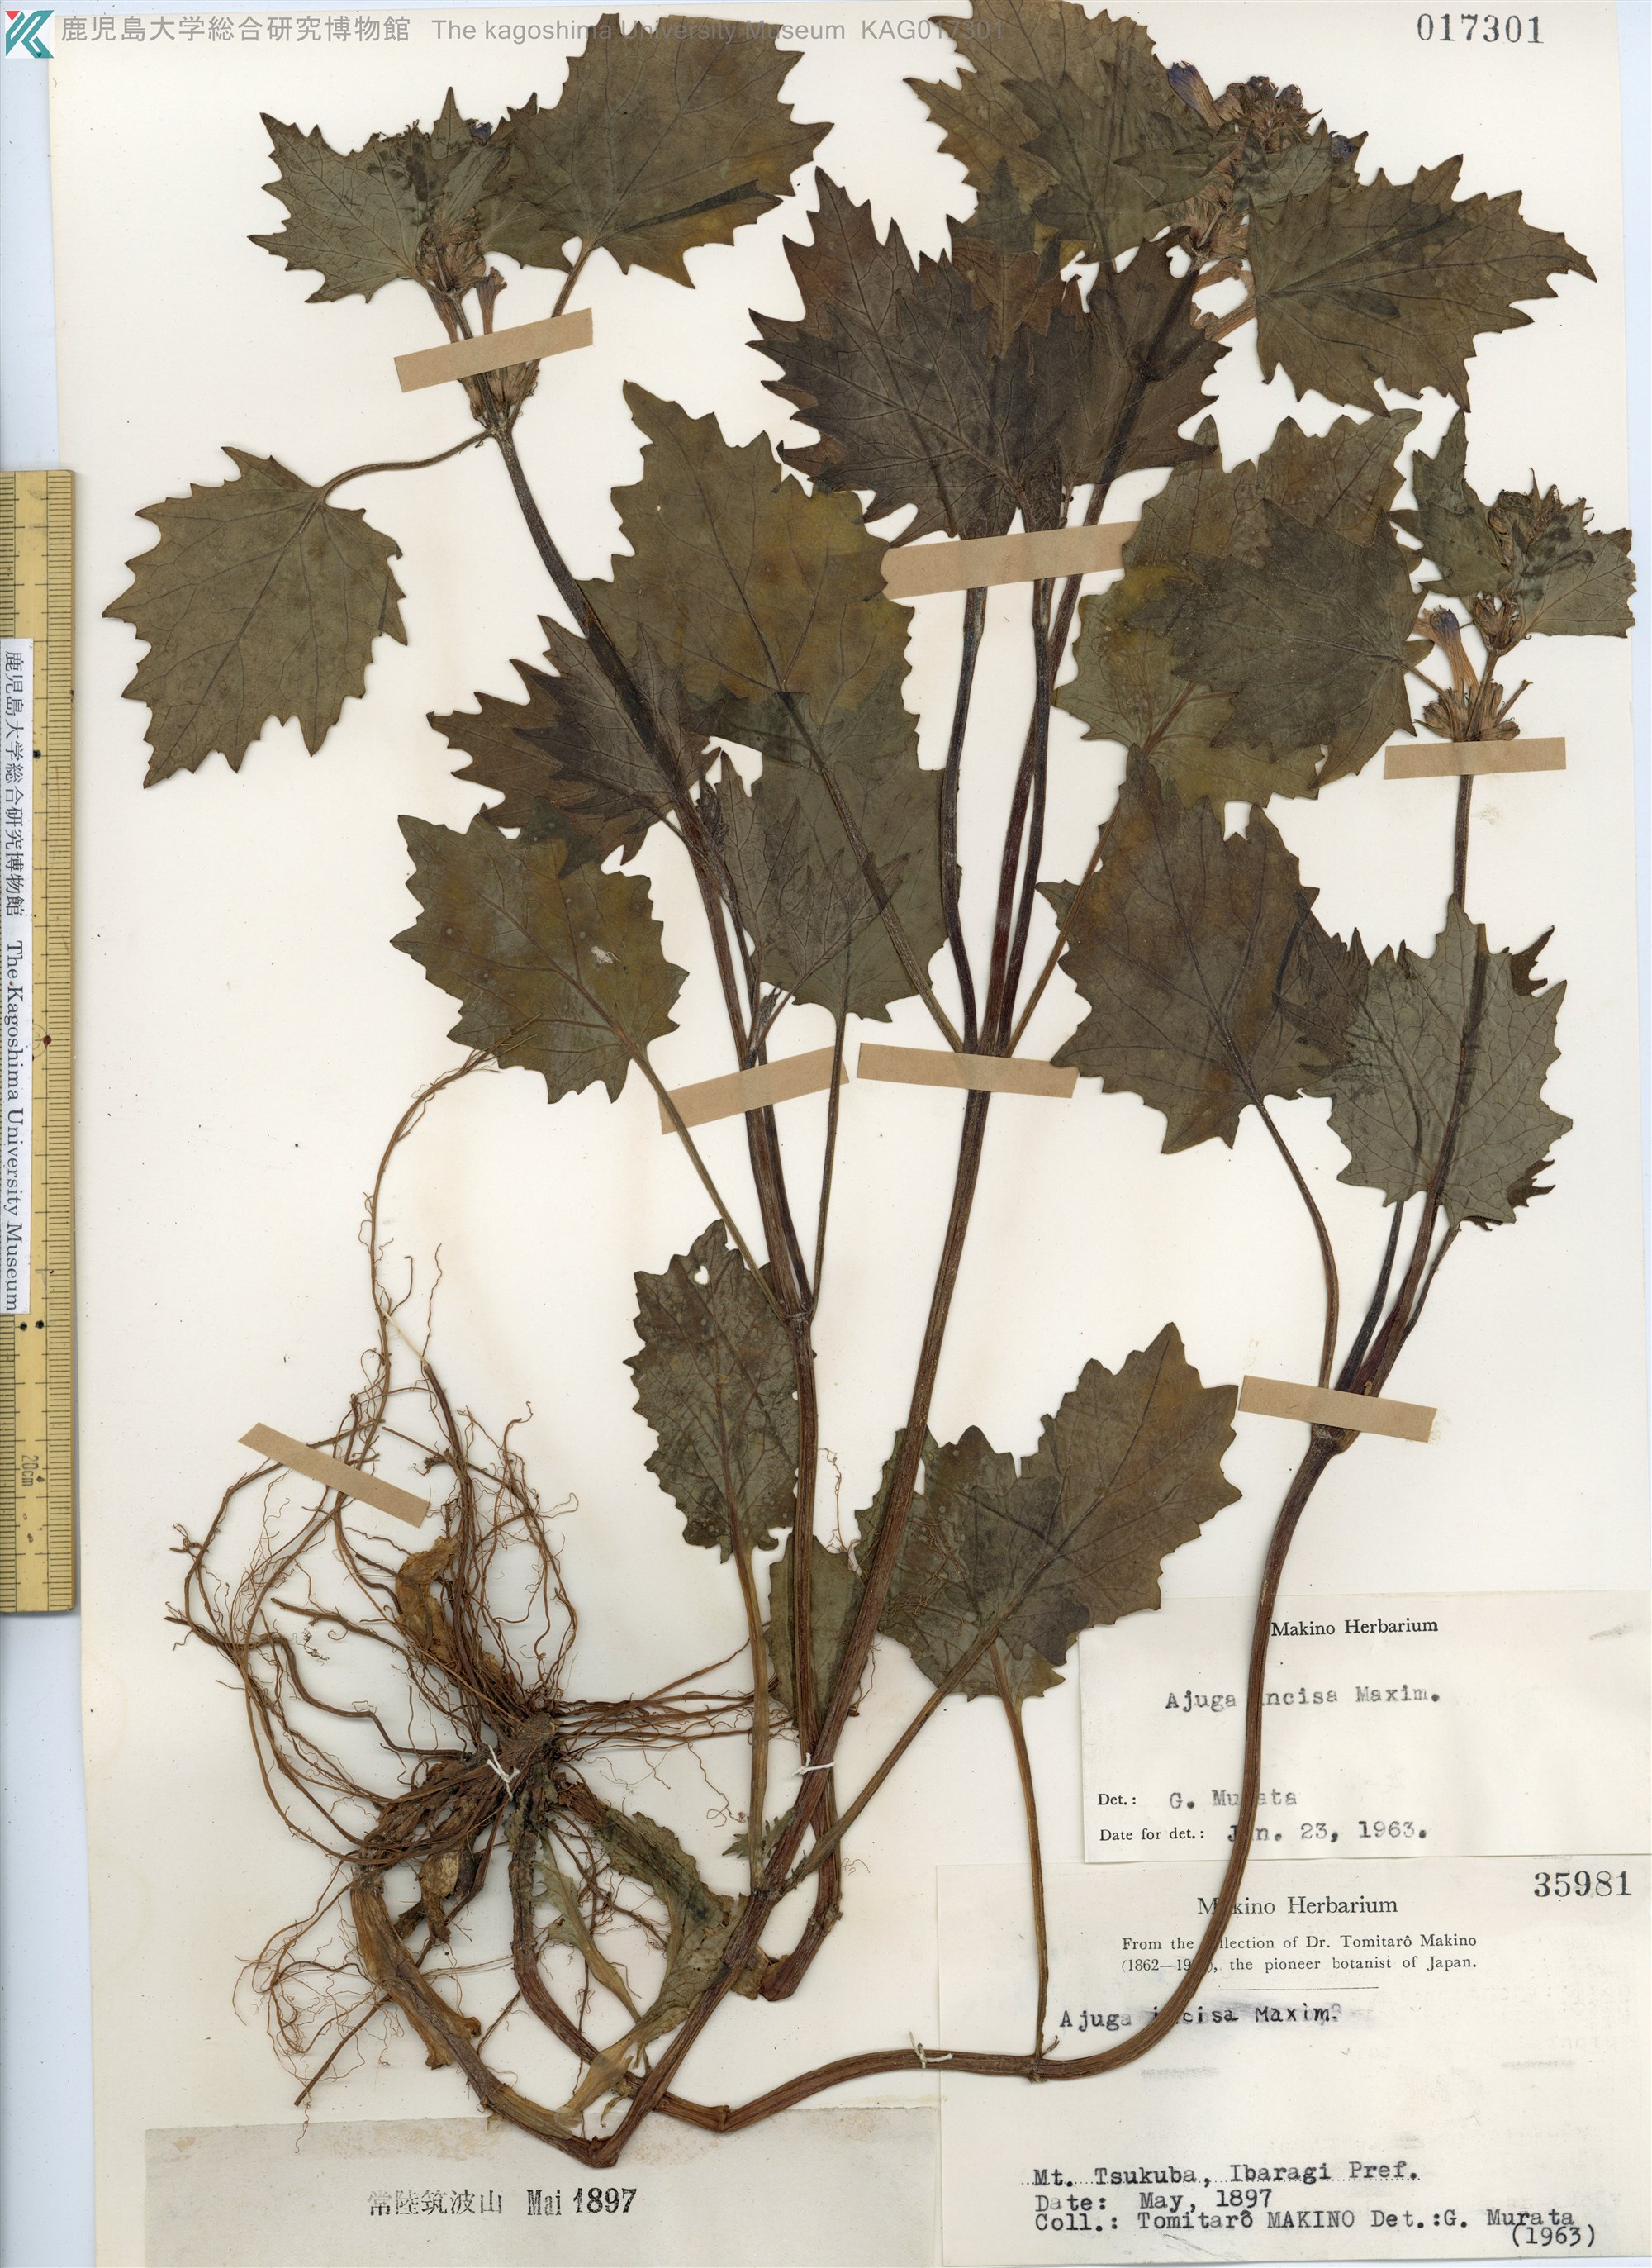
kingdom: Plantae
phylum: Tracheophyta
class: Magnoliopsida
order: Lamiales
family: Lamiaceae
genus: Ajuga
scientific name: Ajuga incisa
